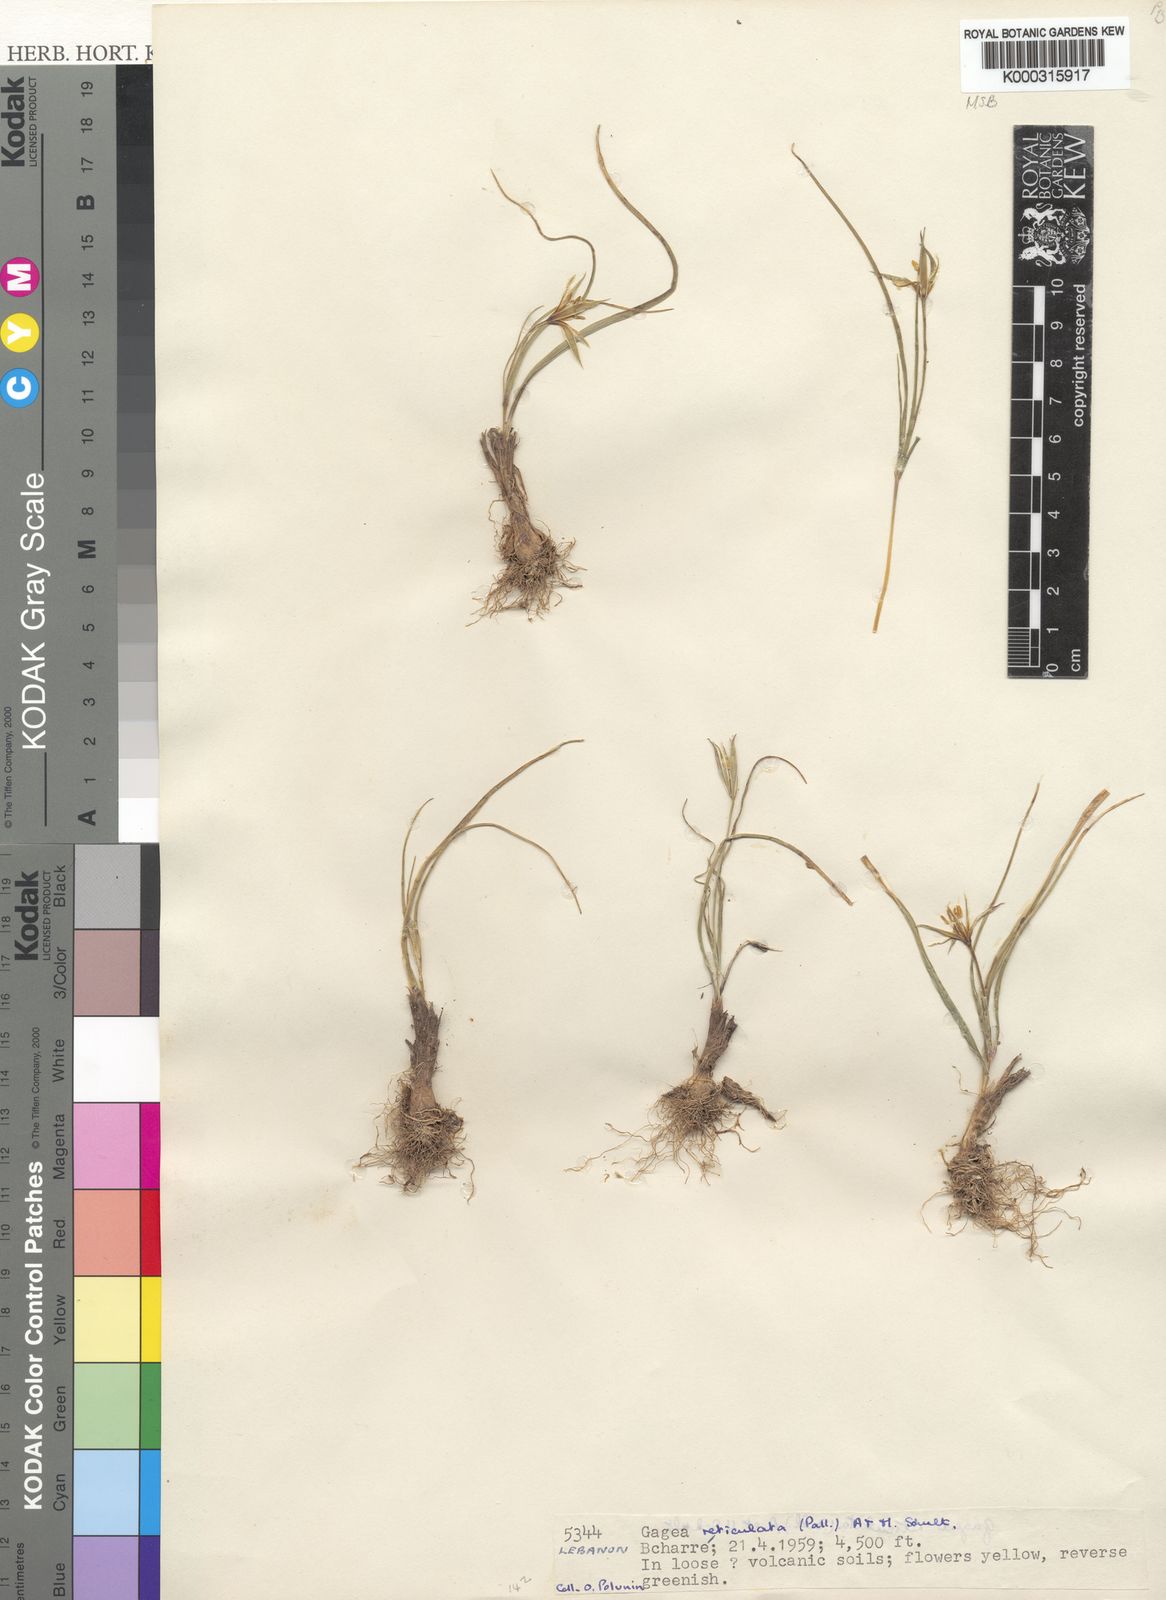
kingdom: Plantae
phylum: Tracheophyta
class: Liliopsida
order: Liliales
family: Liliaceae
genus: Gagea
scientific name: Gagea reticulata
